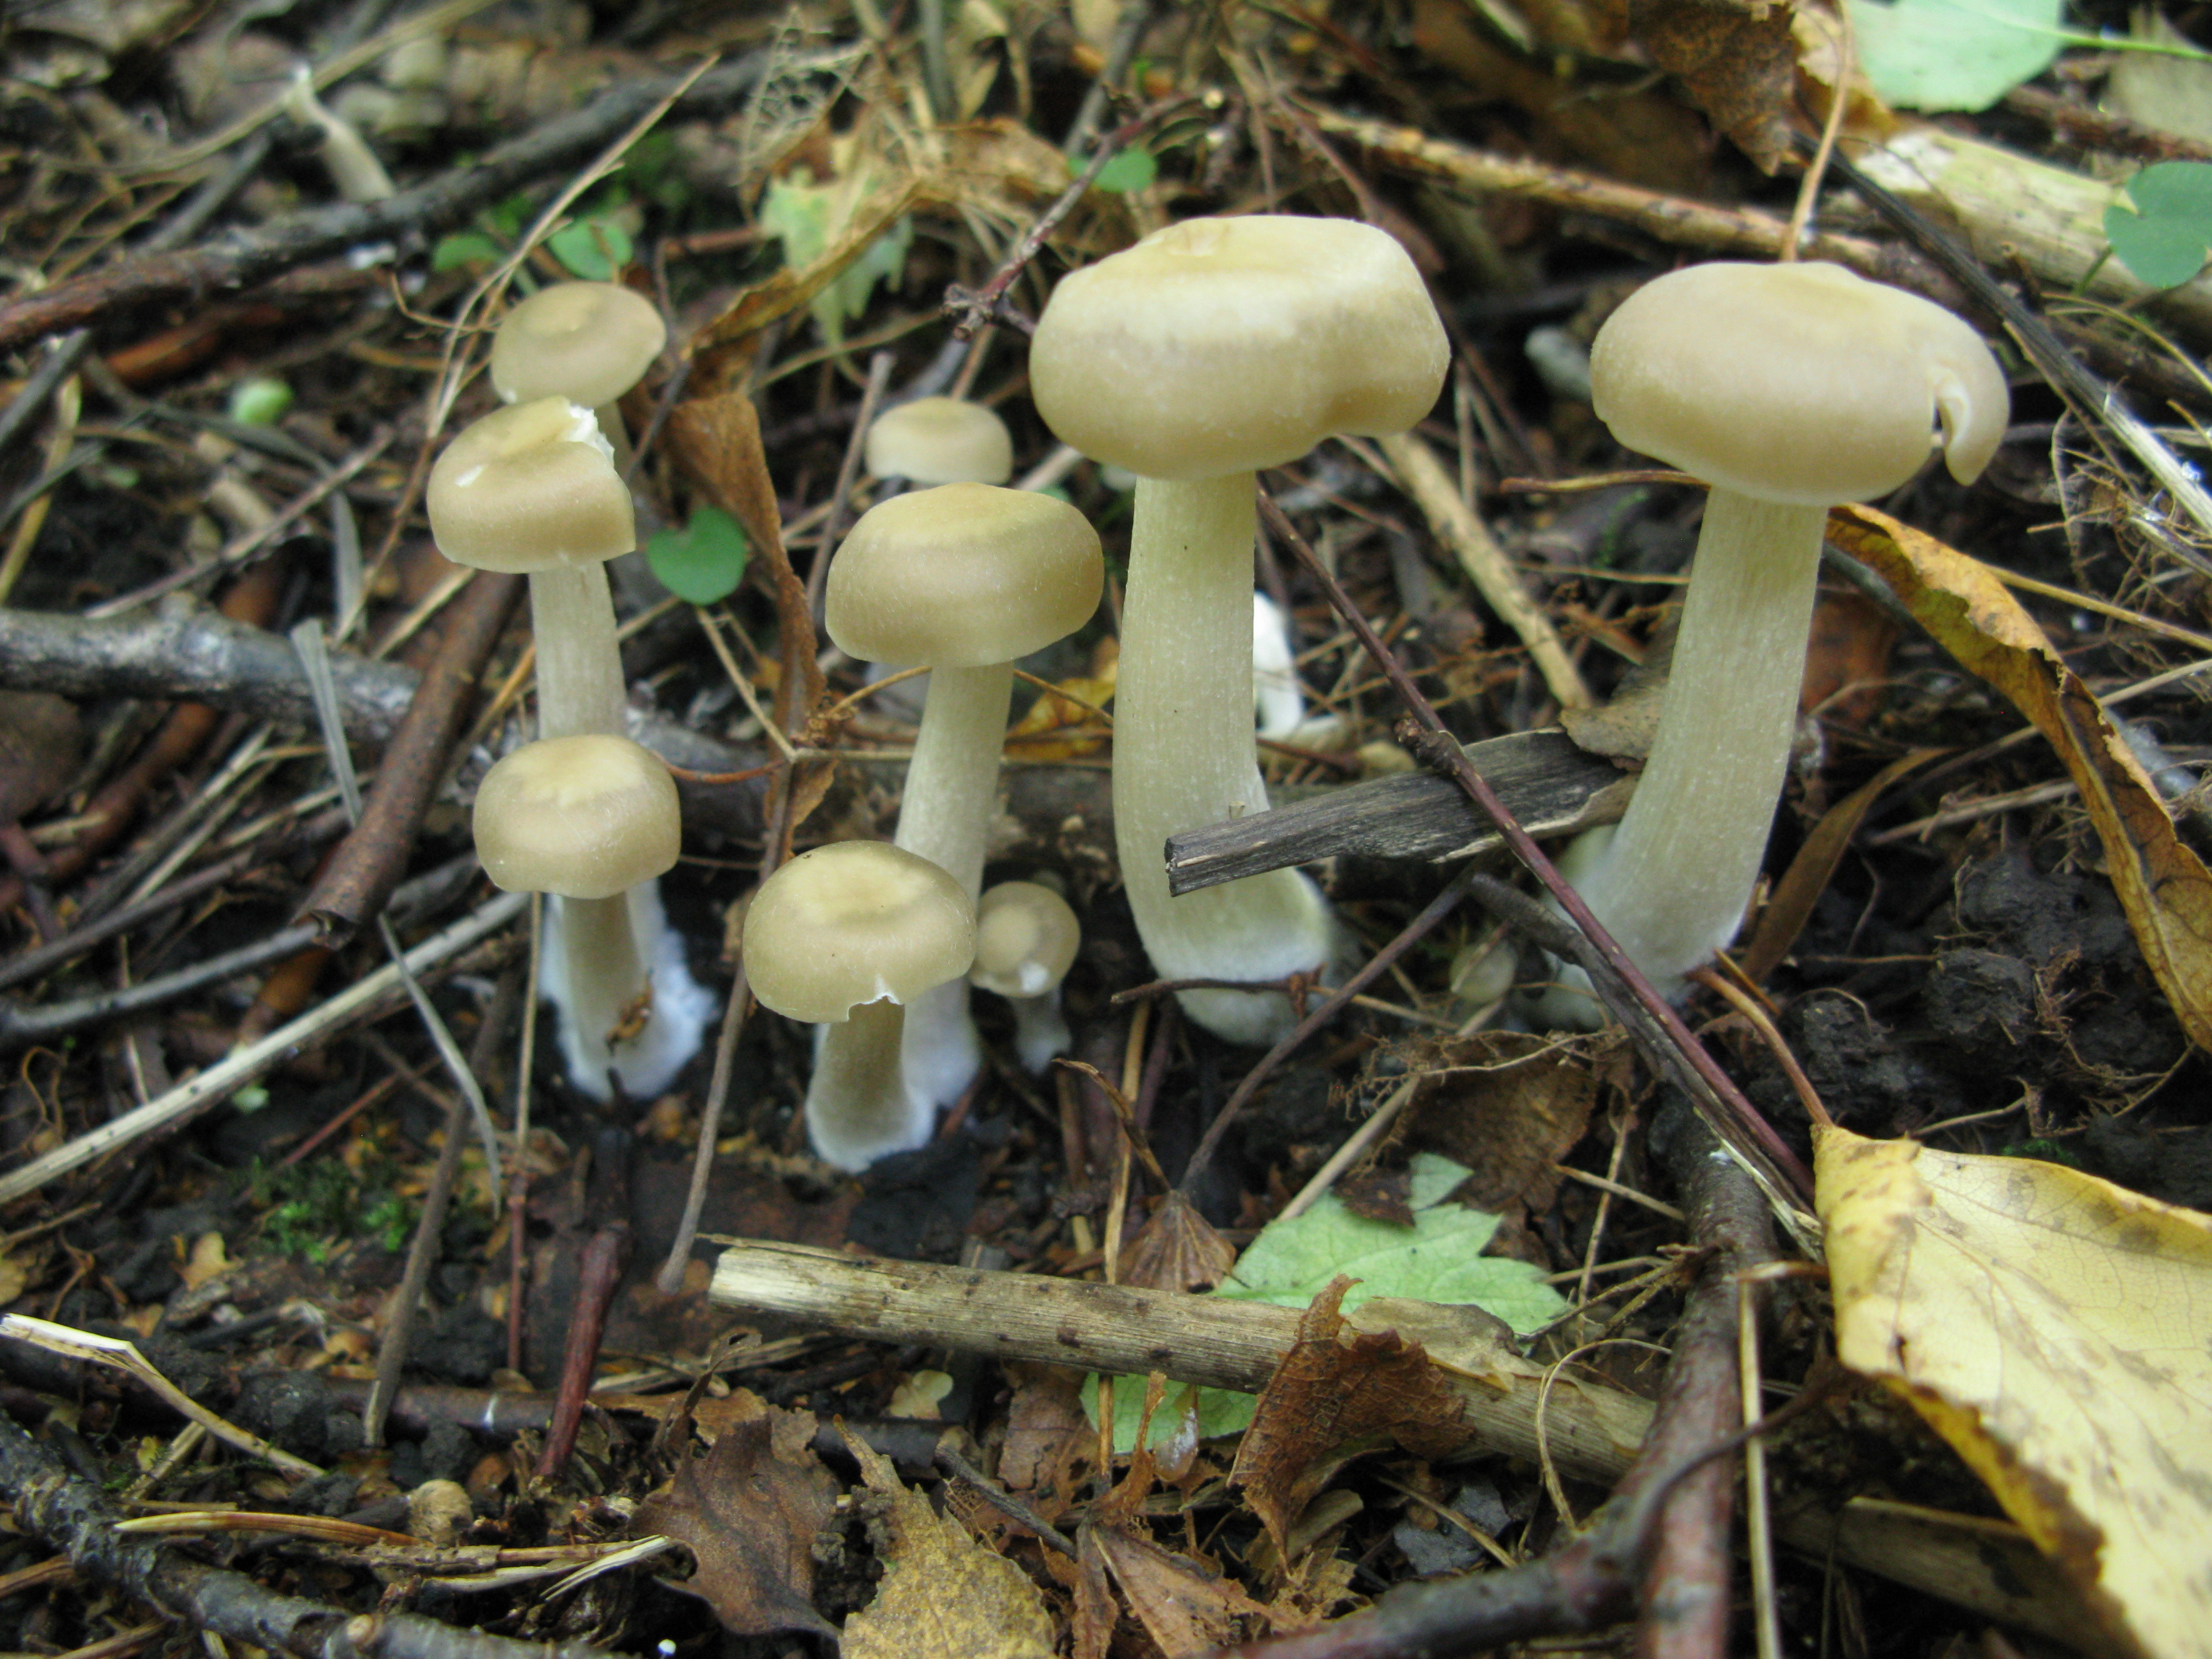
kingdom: Fungi
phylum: Basidiomycota
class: Agaricomycetes
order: Agaricales
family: Entolomataceae
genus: Entoloma
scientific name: Entoloma rhodopolium
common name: Wood pinkgill
